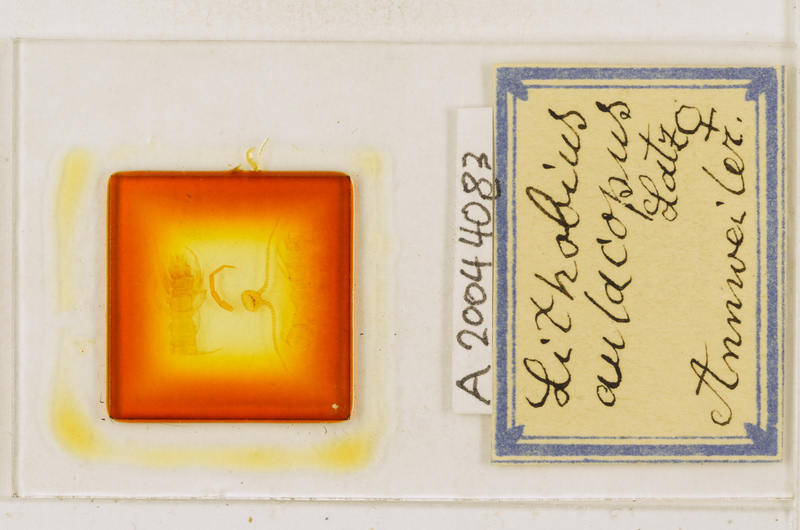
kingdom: Animalia
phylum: Arthropoda
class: Chilopoda
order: Lithobiomorpha
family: Lithobiidae
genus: Lithobius
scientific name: Lithobius macilentus
